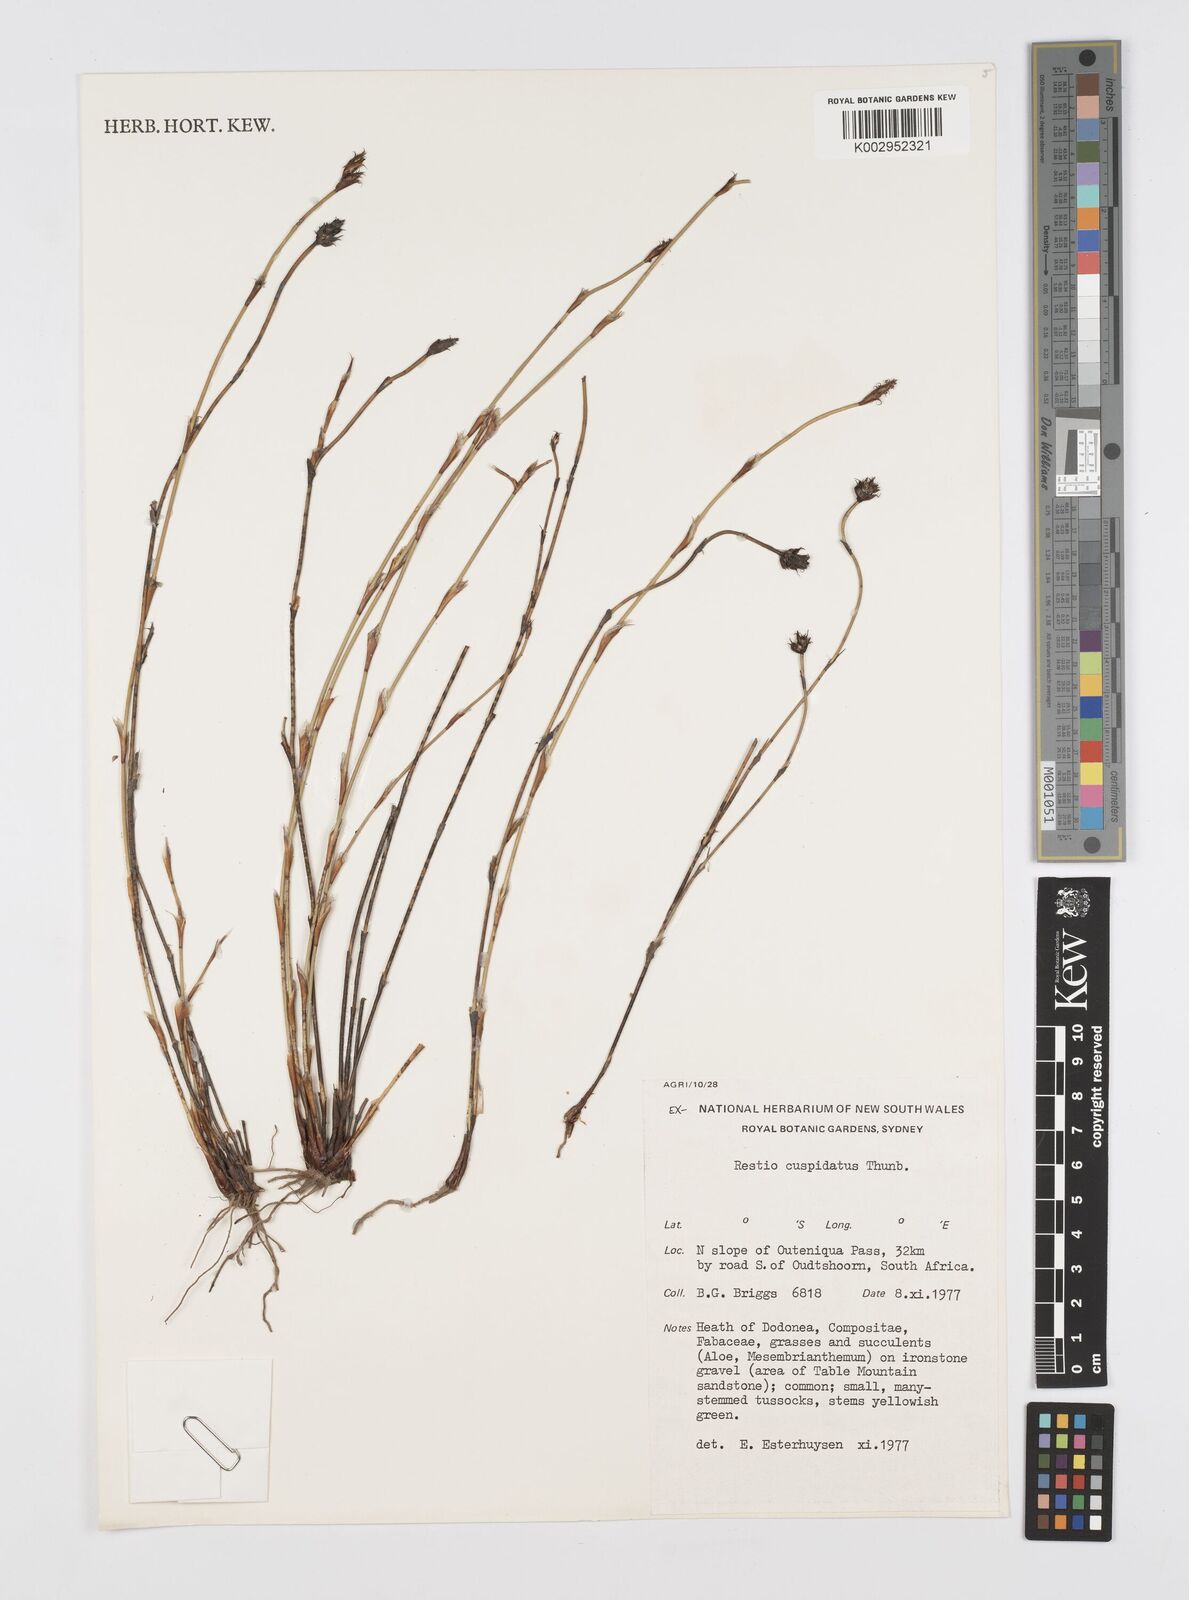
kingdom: Plantae
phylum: Tracheophyta
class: Liliopsida
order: Poales
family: Restionaceae
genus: Restio
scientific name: Restio capensis
